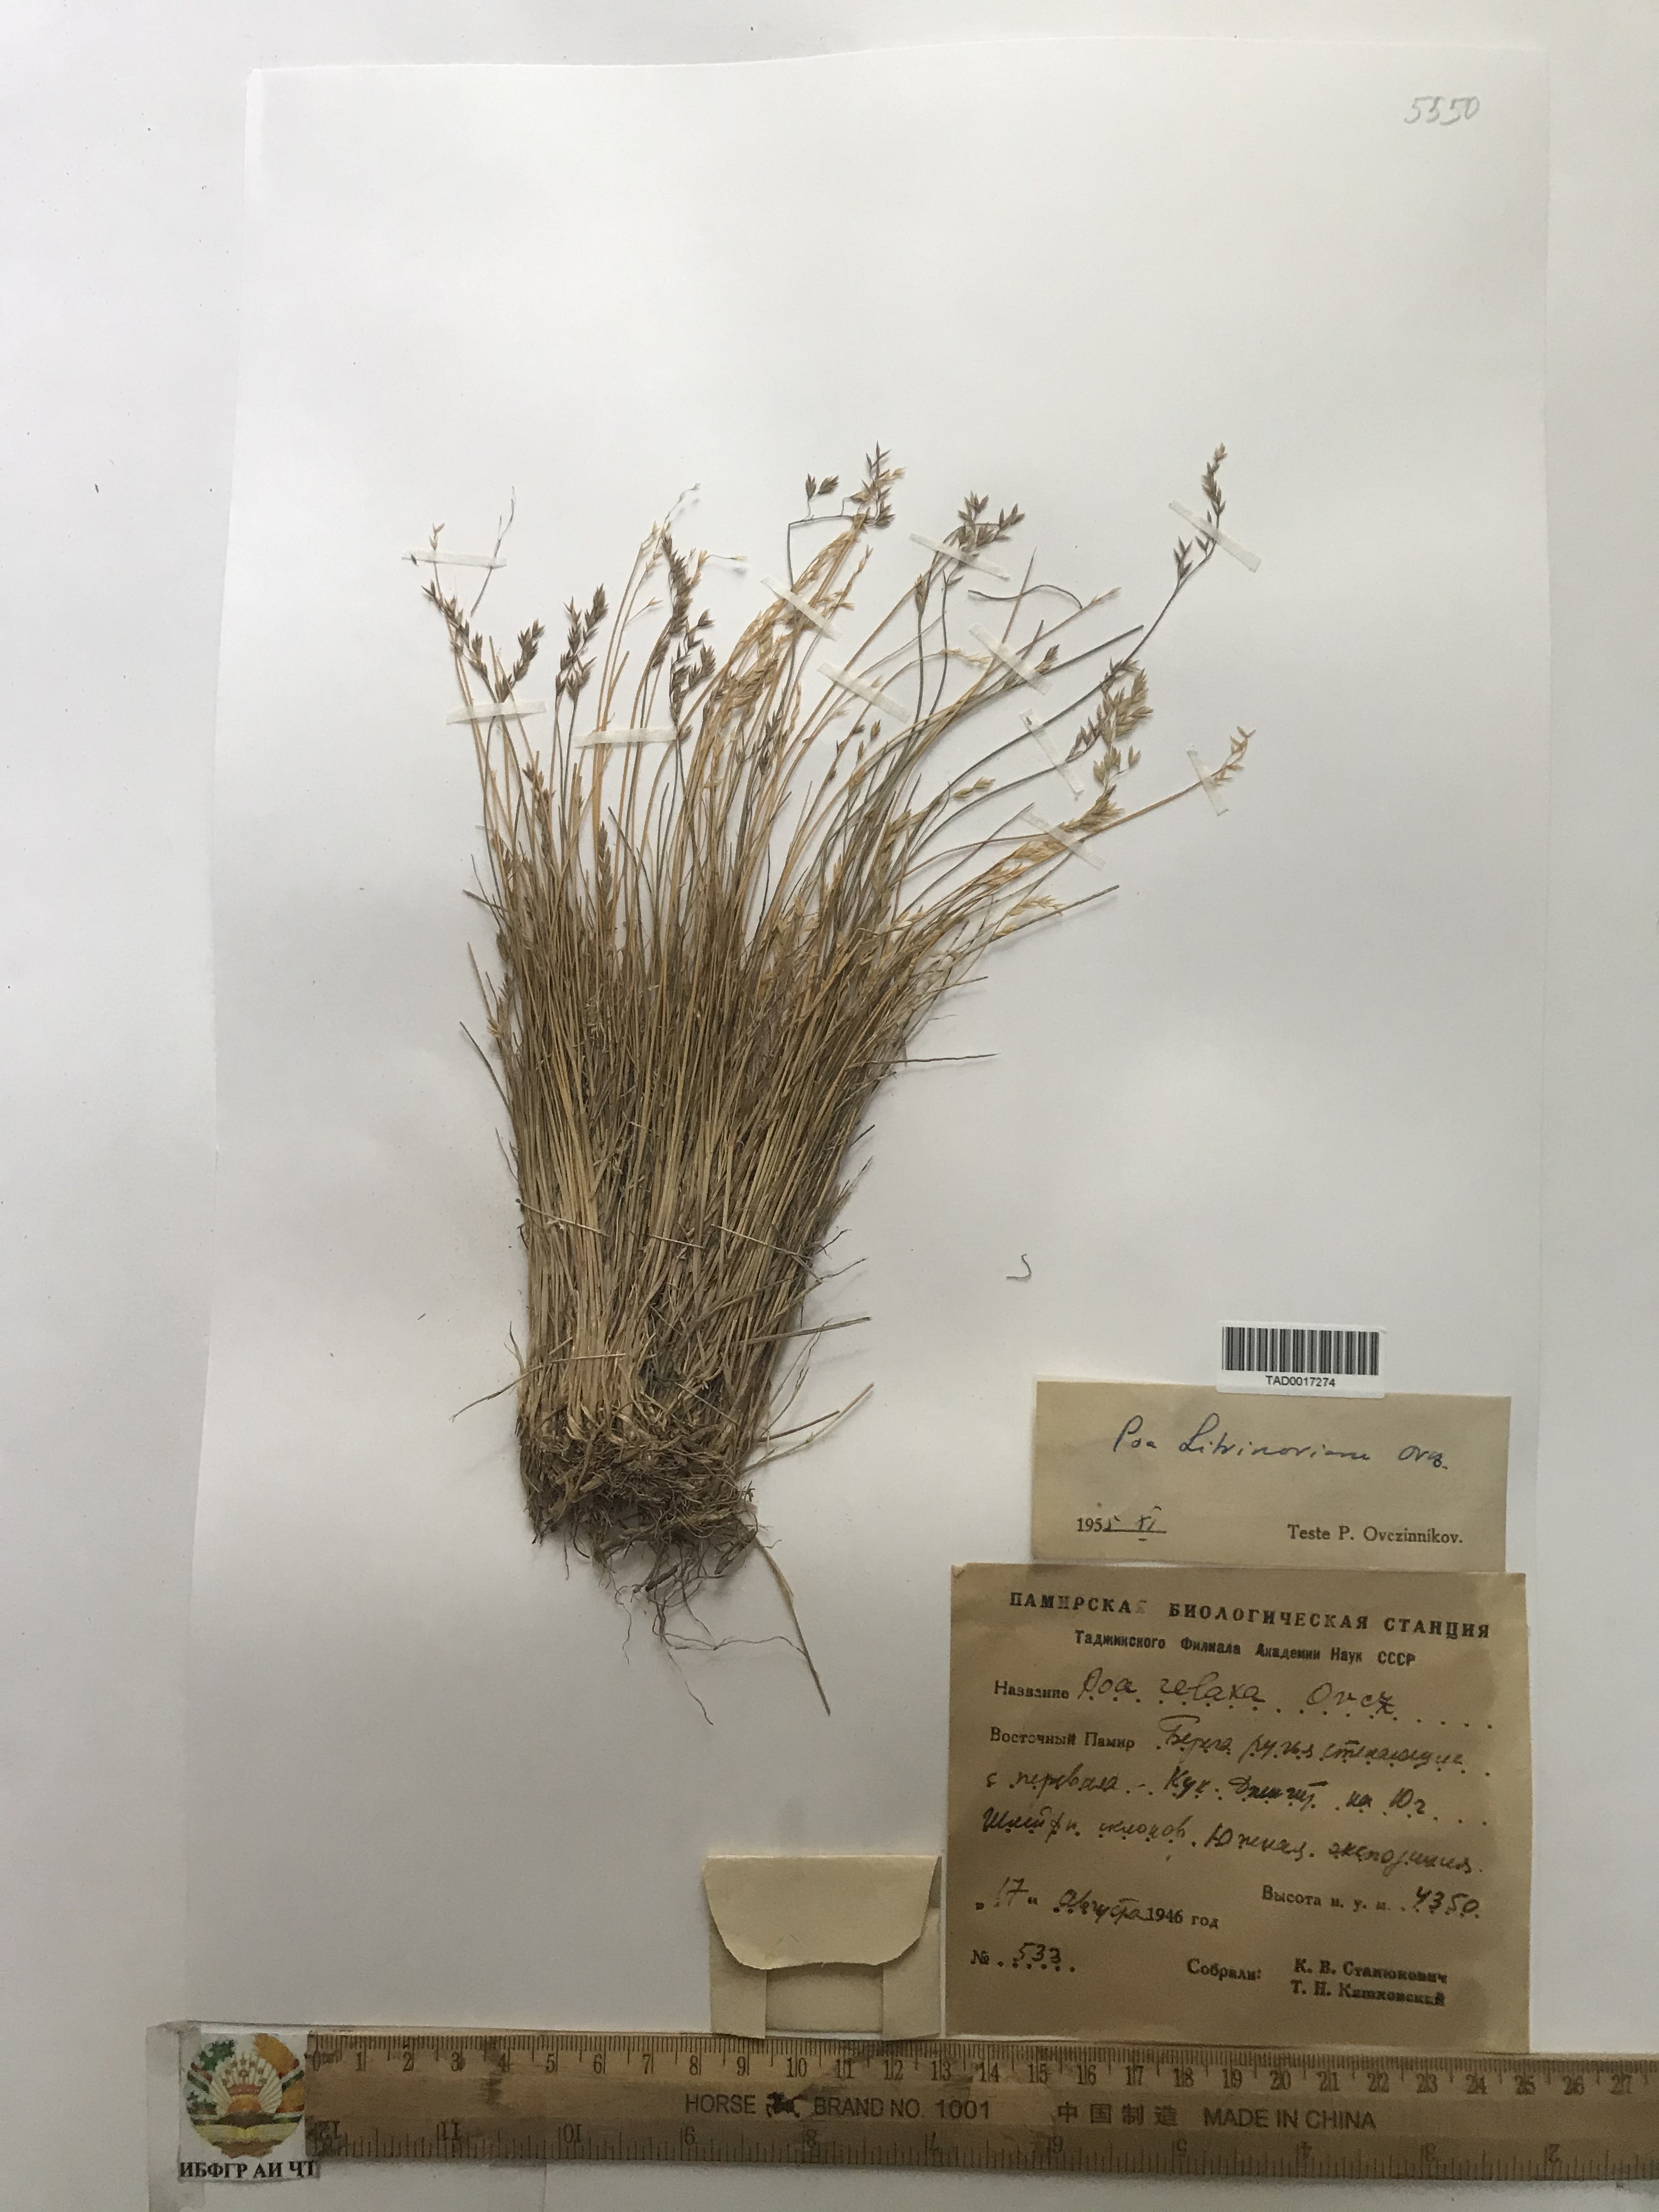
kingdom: Plantae
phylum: Tracheophyta
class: Liliopsida
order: Poales
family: Poaceae
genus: Poa
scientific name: Poa glauca
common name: Glaucous bluegrass
